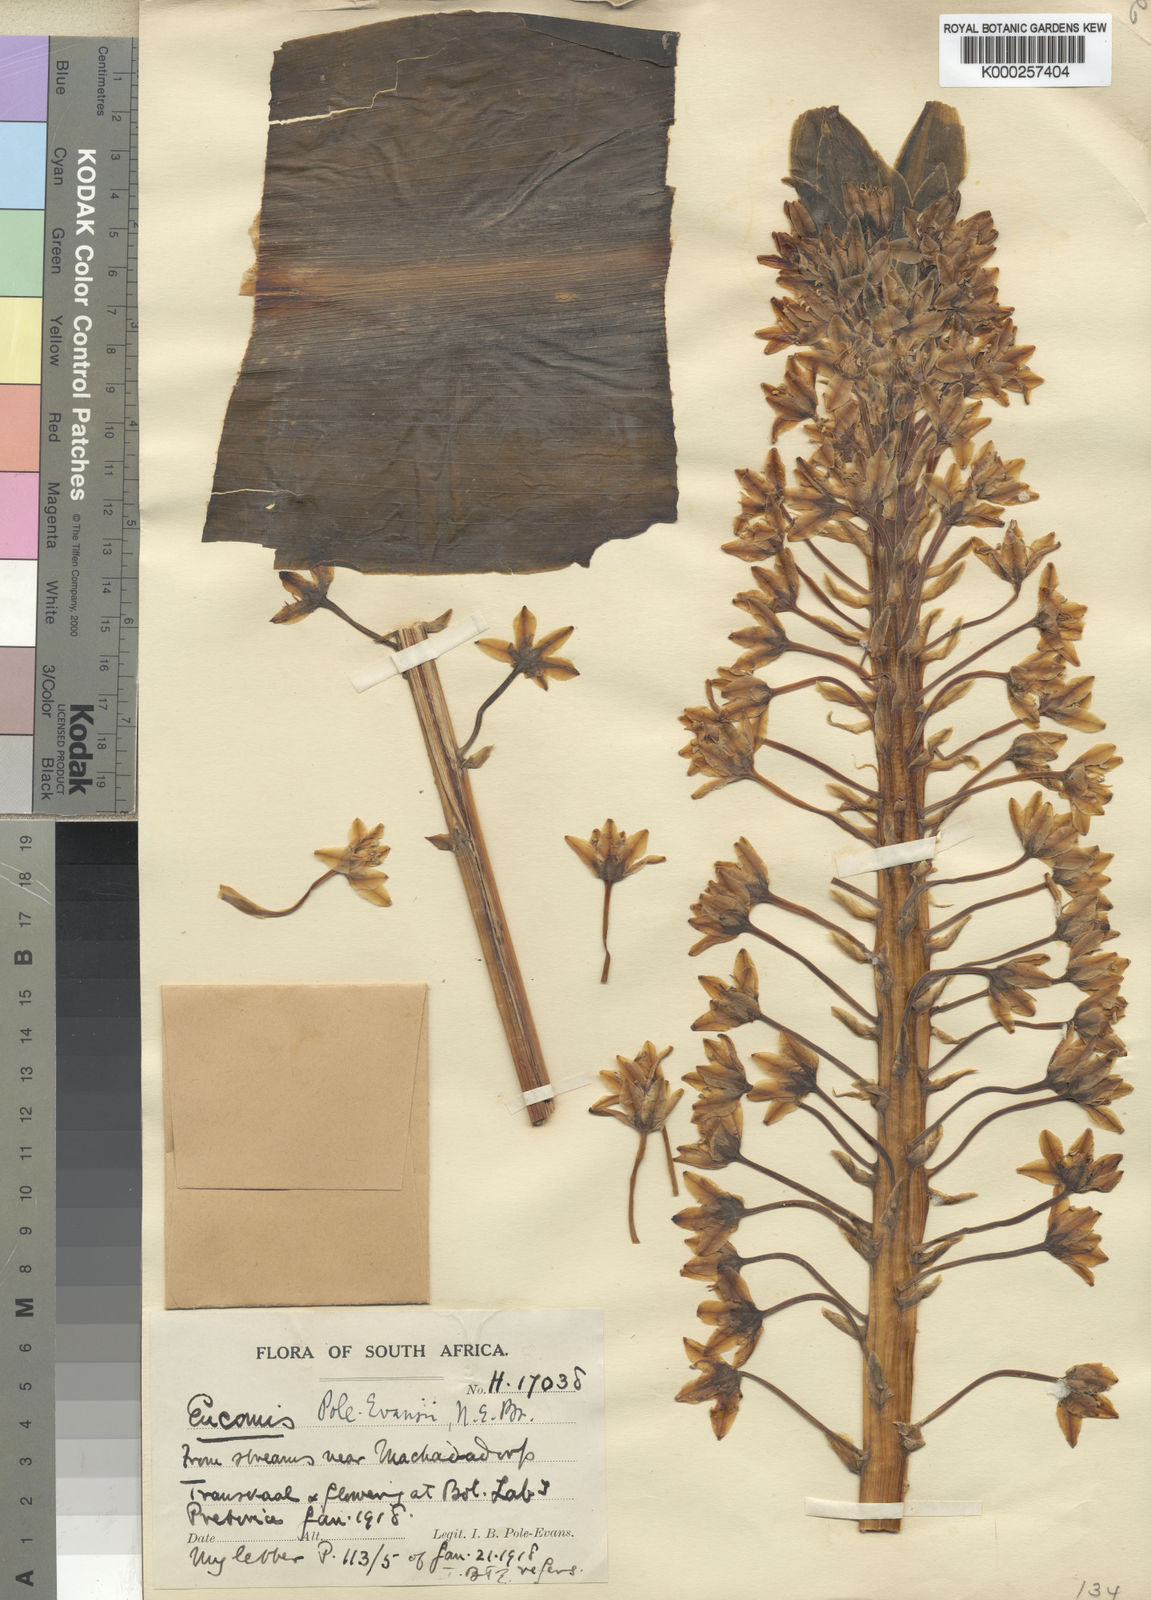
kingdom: Plantae
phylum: Tracheophyta
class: Liliopsida
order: Asparagales
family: Asparagaceae
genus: Eucomis
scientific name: Eucomis pallidiflora
